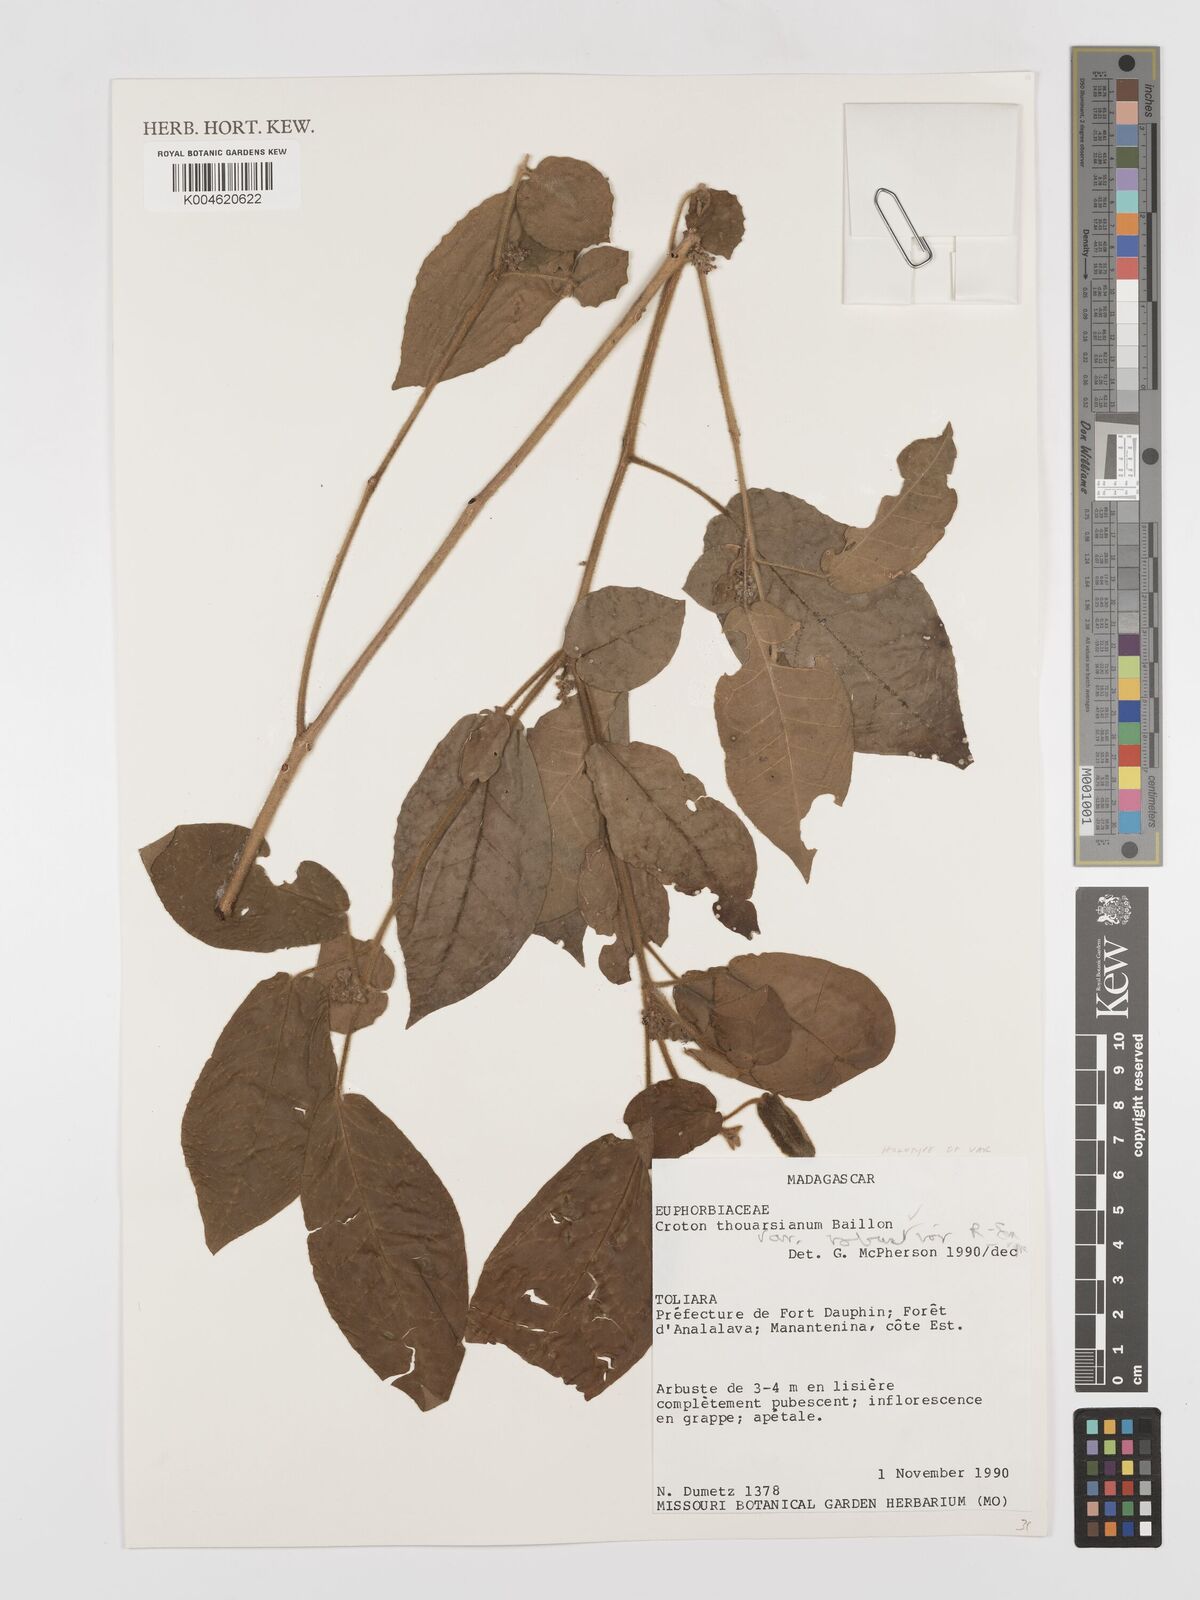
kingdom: Plantae
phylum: Tracheophyta
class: Magnoliopsida
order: Malpighiales
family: Euphorbiaceae
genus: Croton
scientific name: Croton thouarsianus
